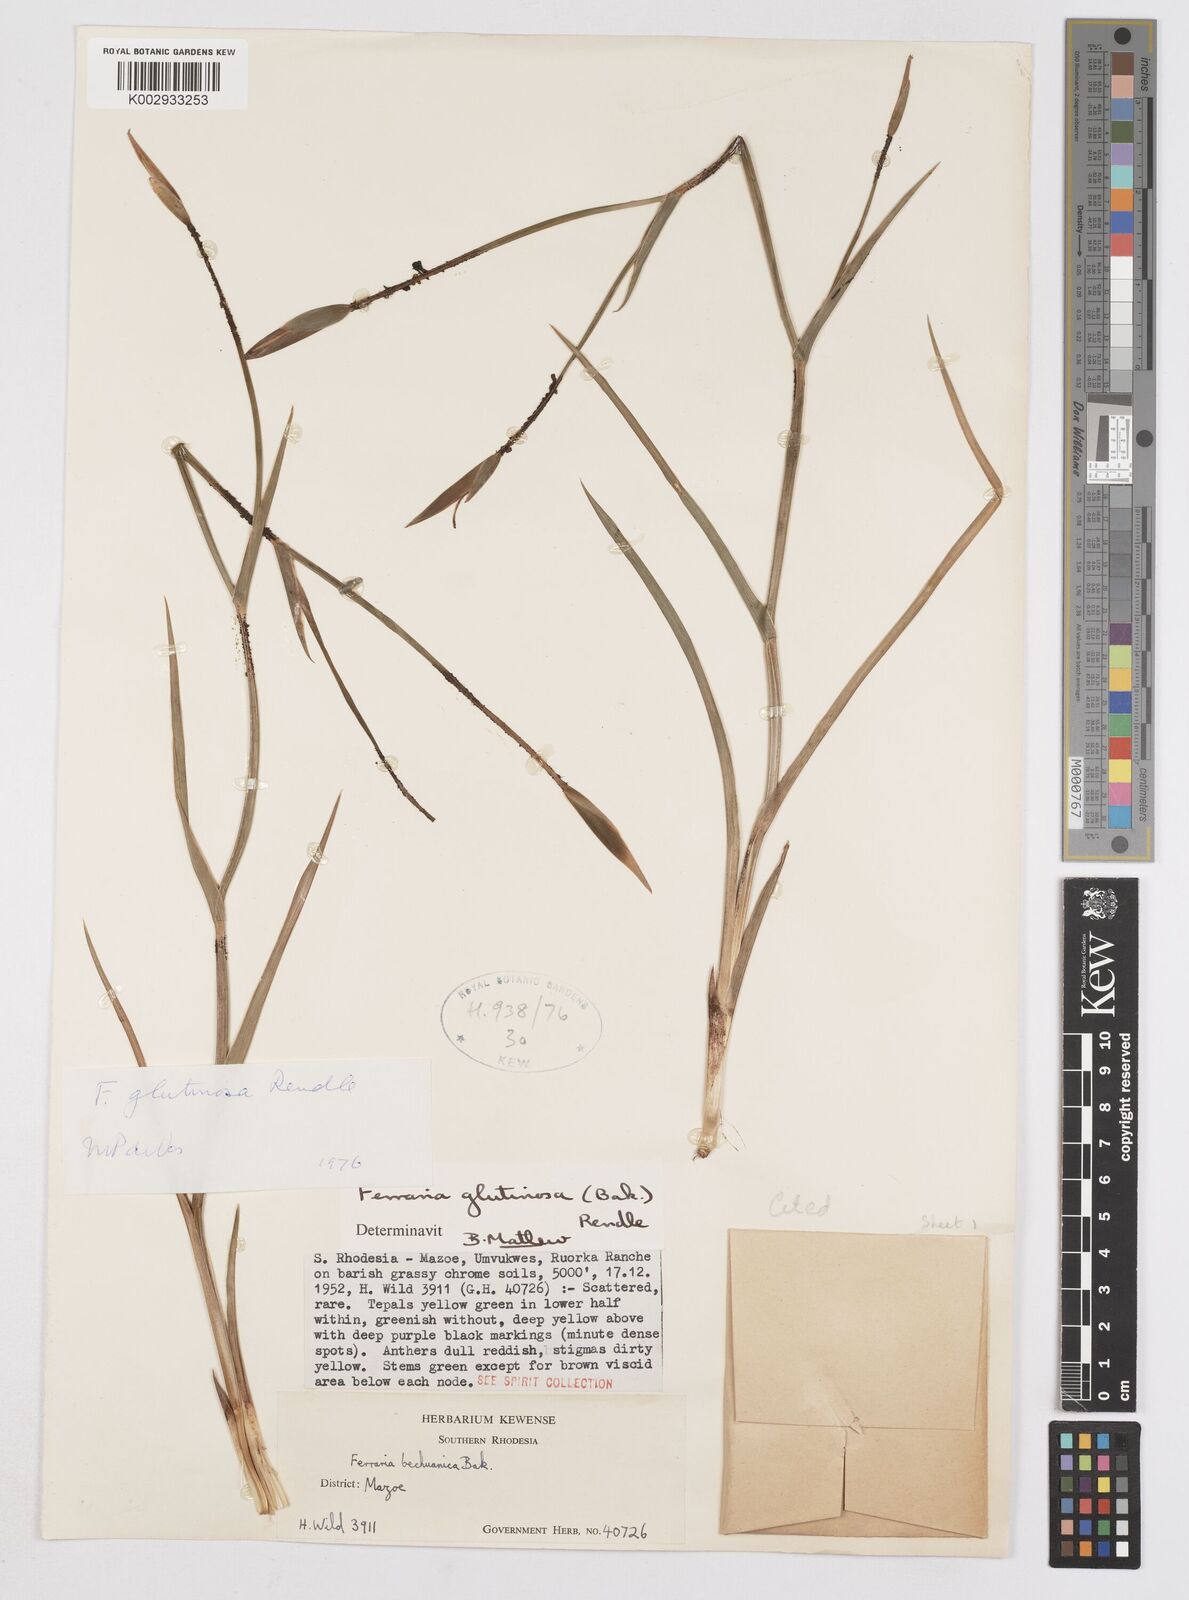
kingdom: Plantae
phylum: Tracheophyta
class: Liliopsida
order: Asparagales
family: Iridaceae
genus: Ferraria
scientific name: Ferraria glutinosa
